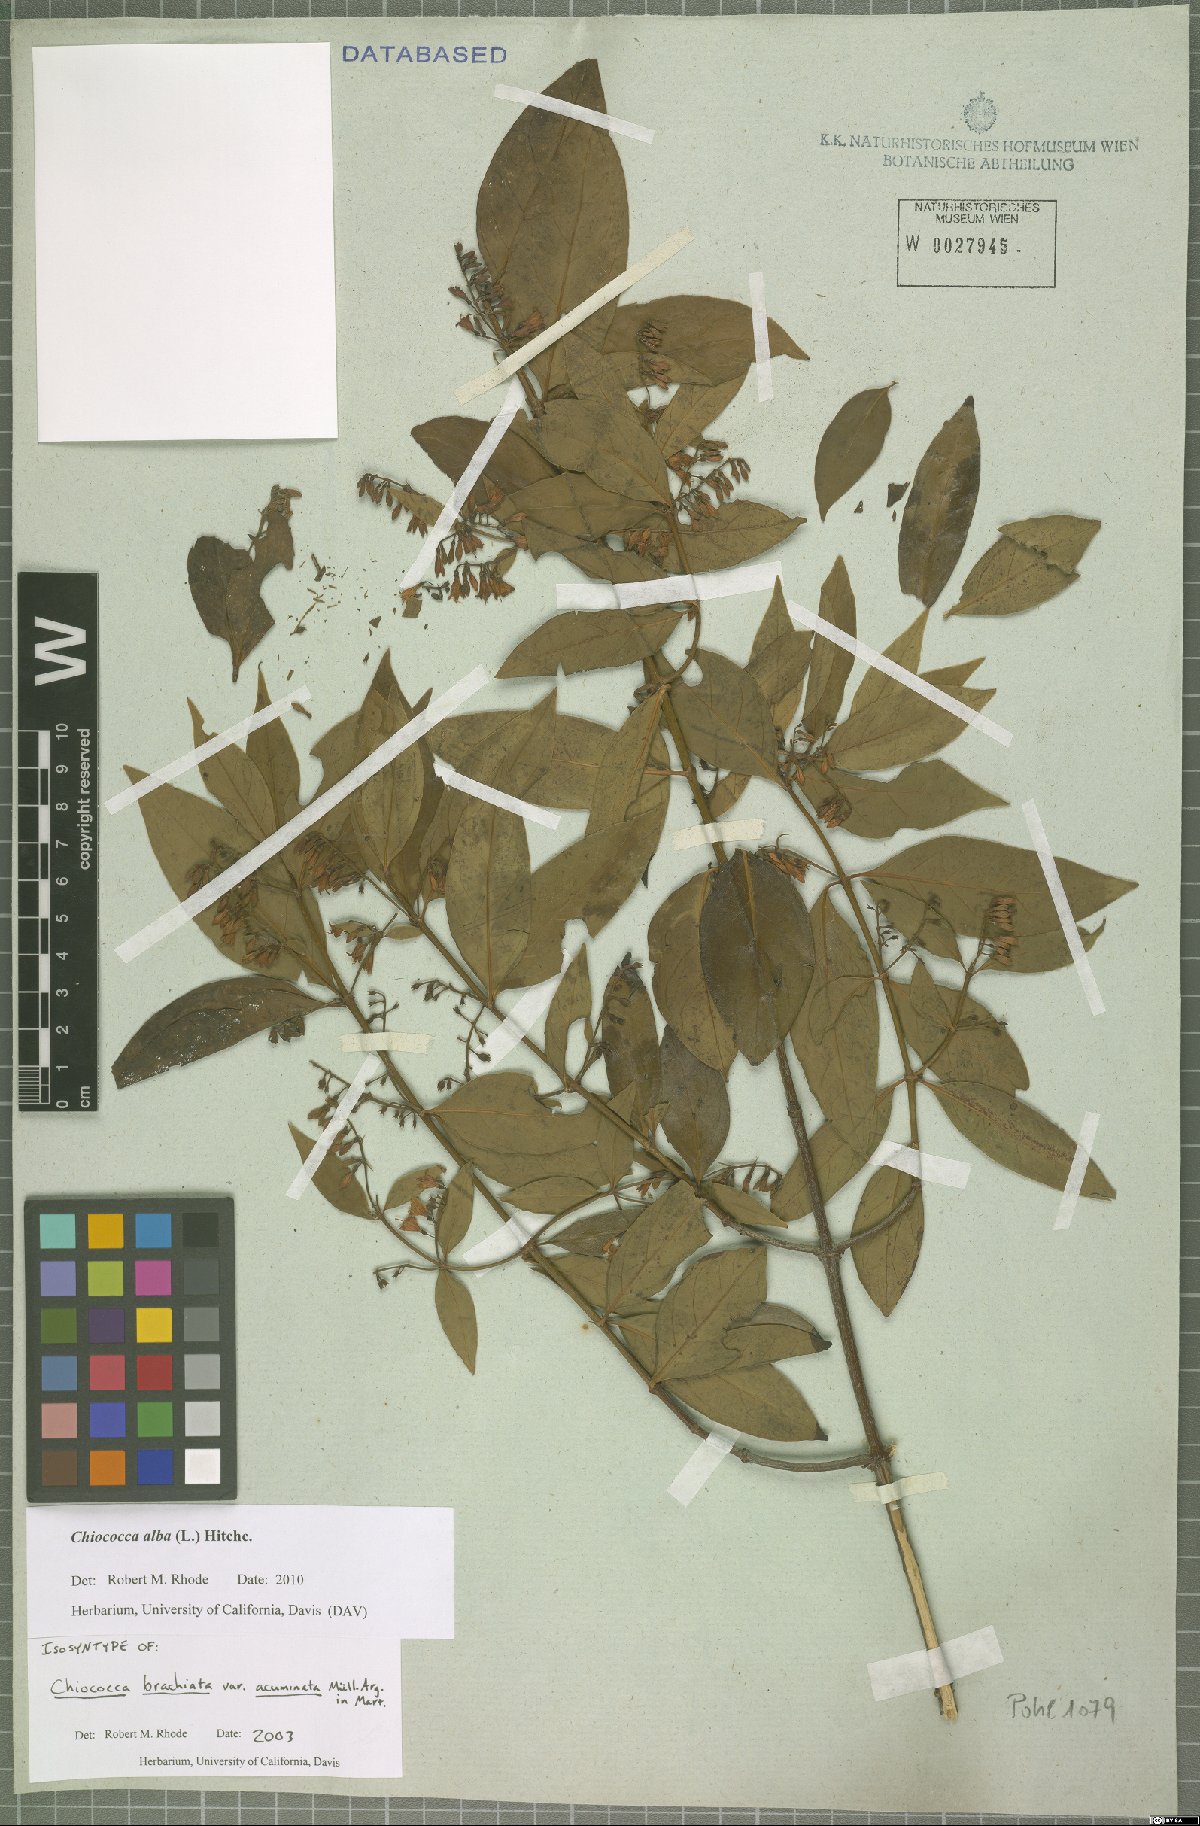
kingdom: Plantae
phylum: Tracheophyta
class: Magnoliopsida
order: Gentianales
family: Rubiaceae
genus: Chiococca
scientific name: Chiococca alba
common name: Snowberry
